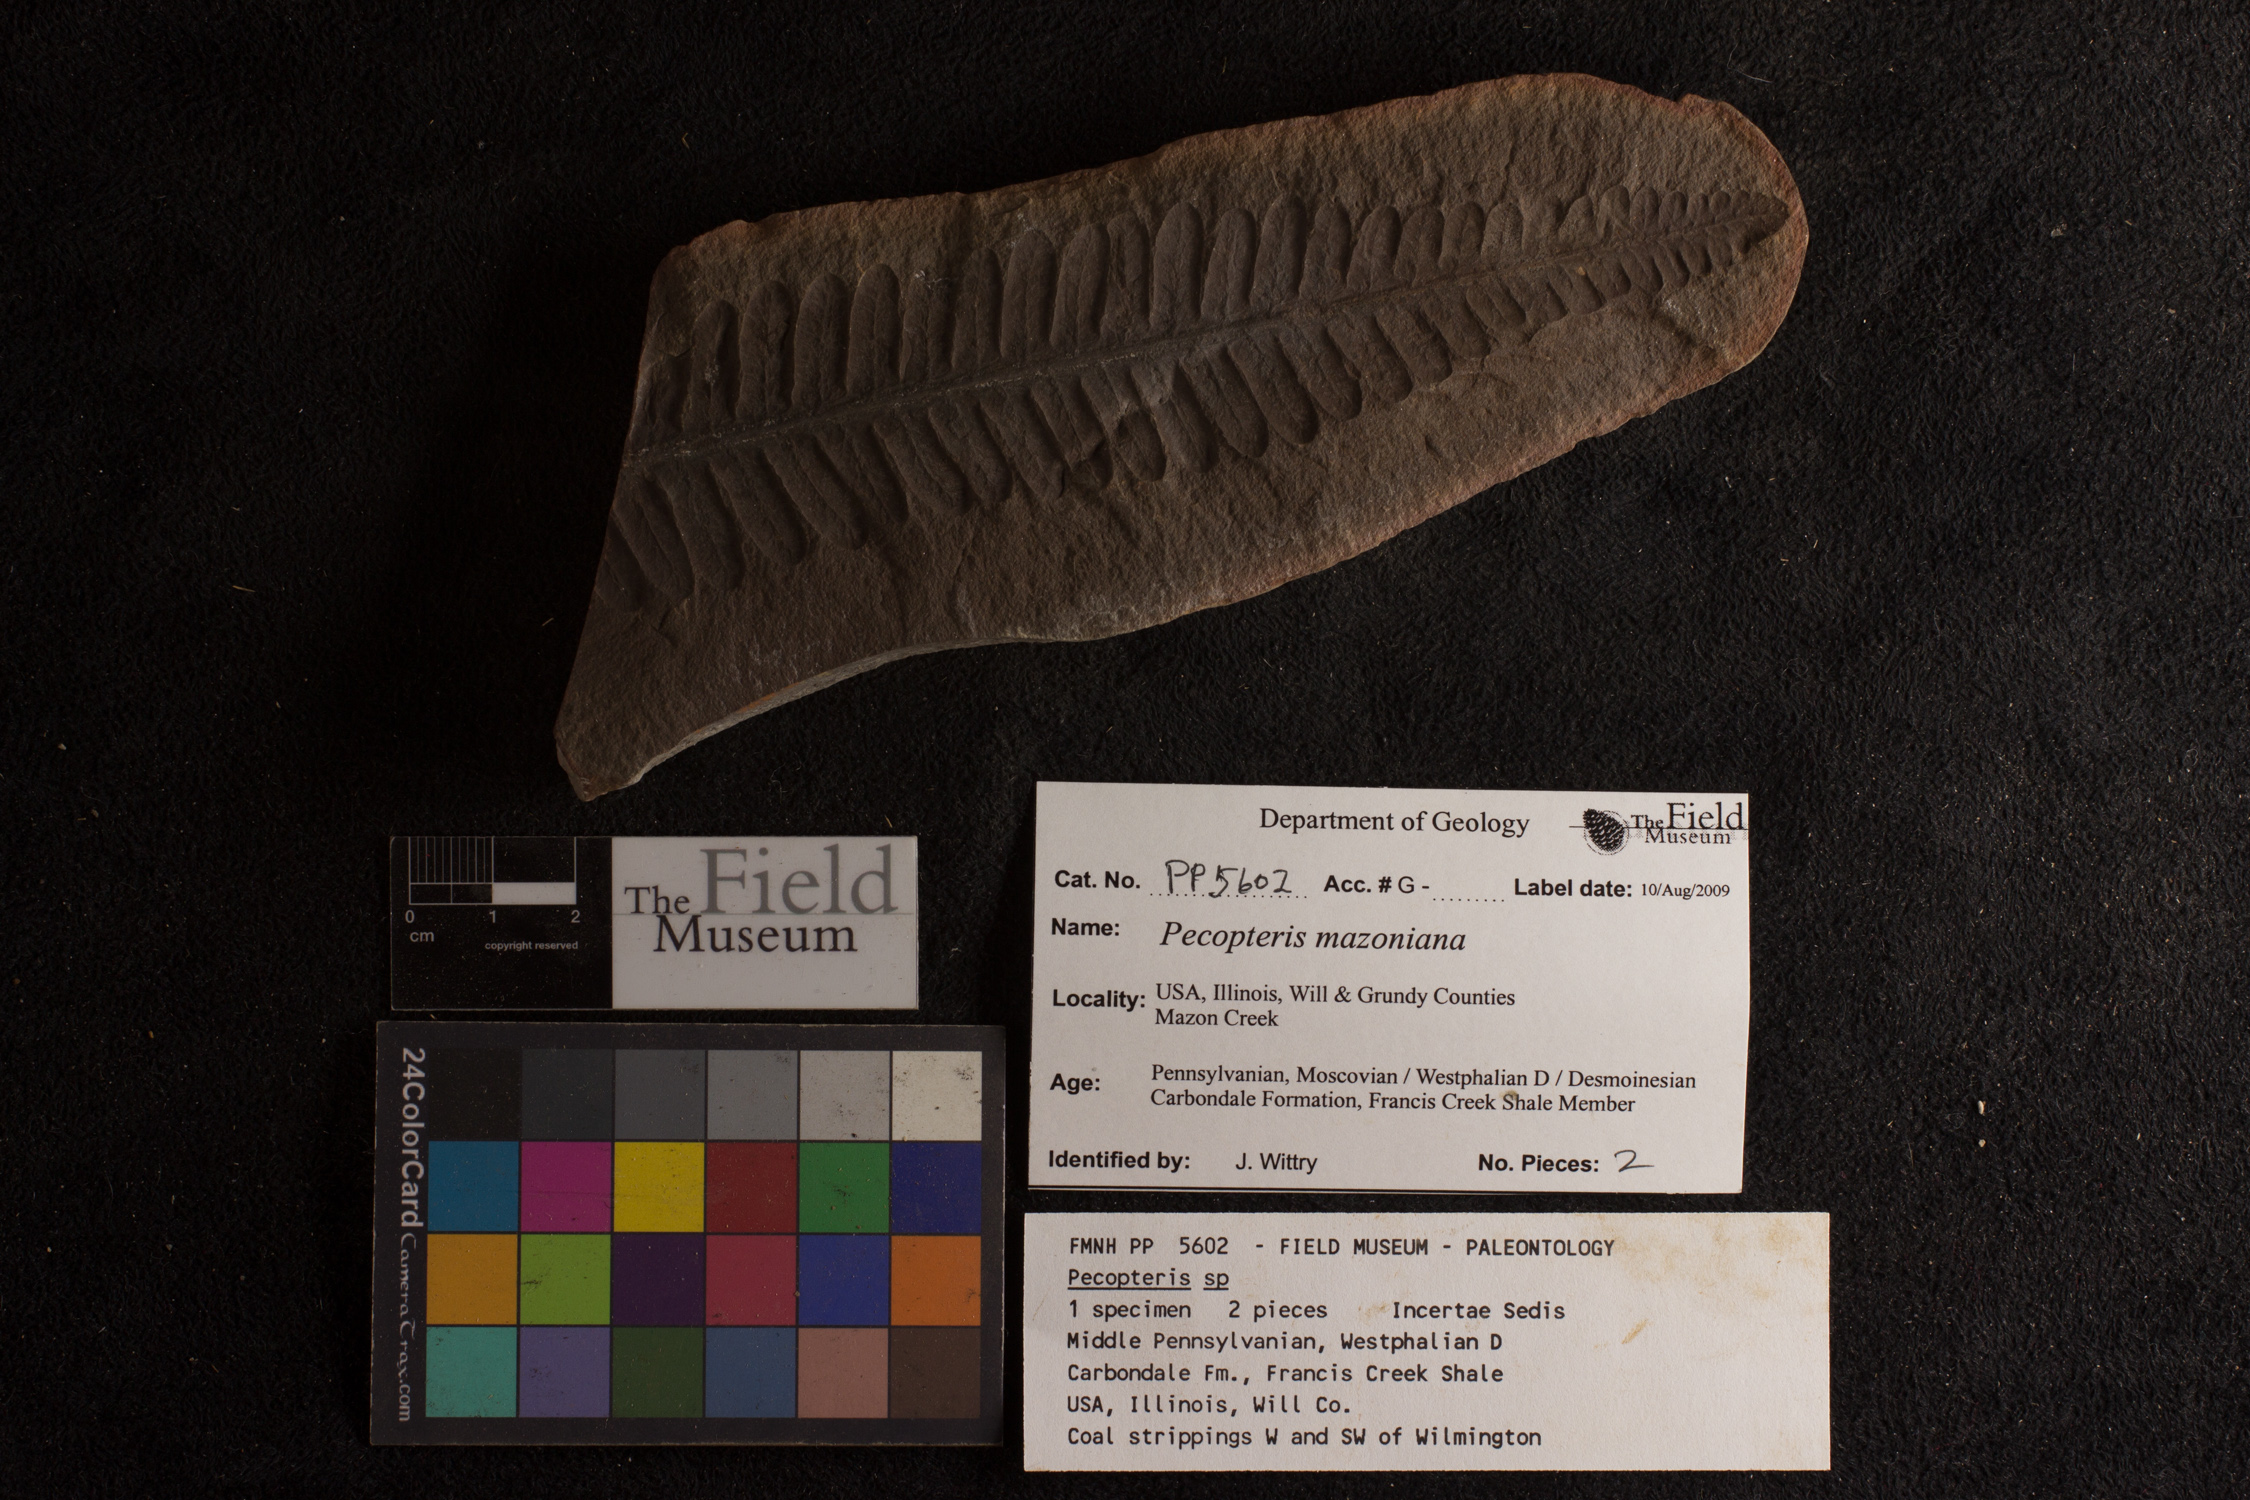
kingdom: Plantae
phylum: Tracheophyta
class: Polypodiopsida
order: Marattiales
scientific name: Marattiales
